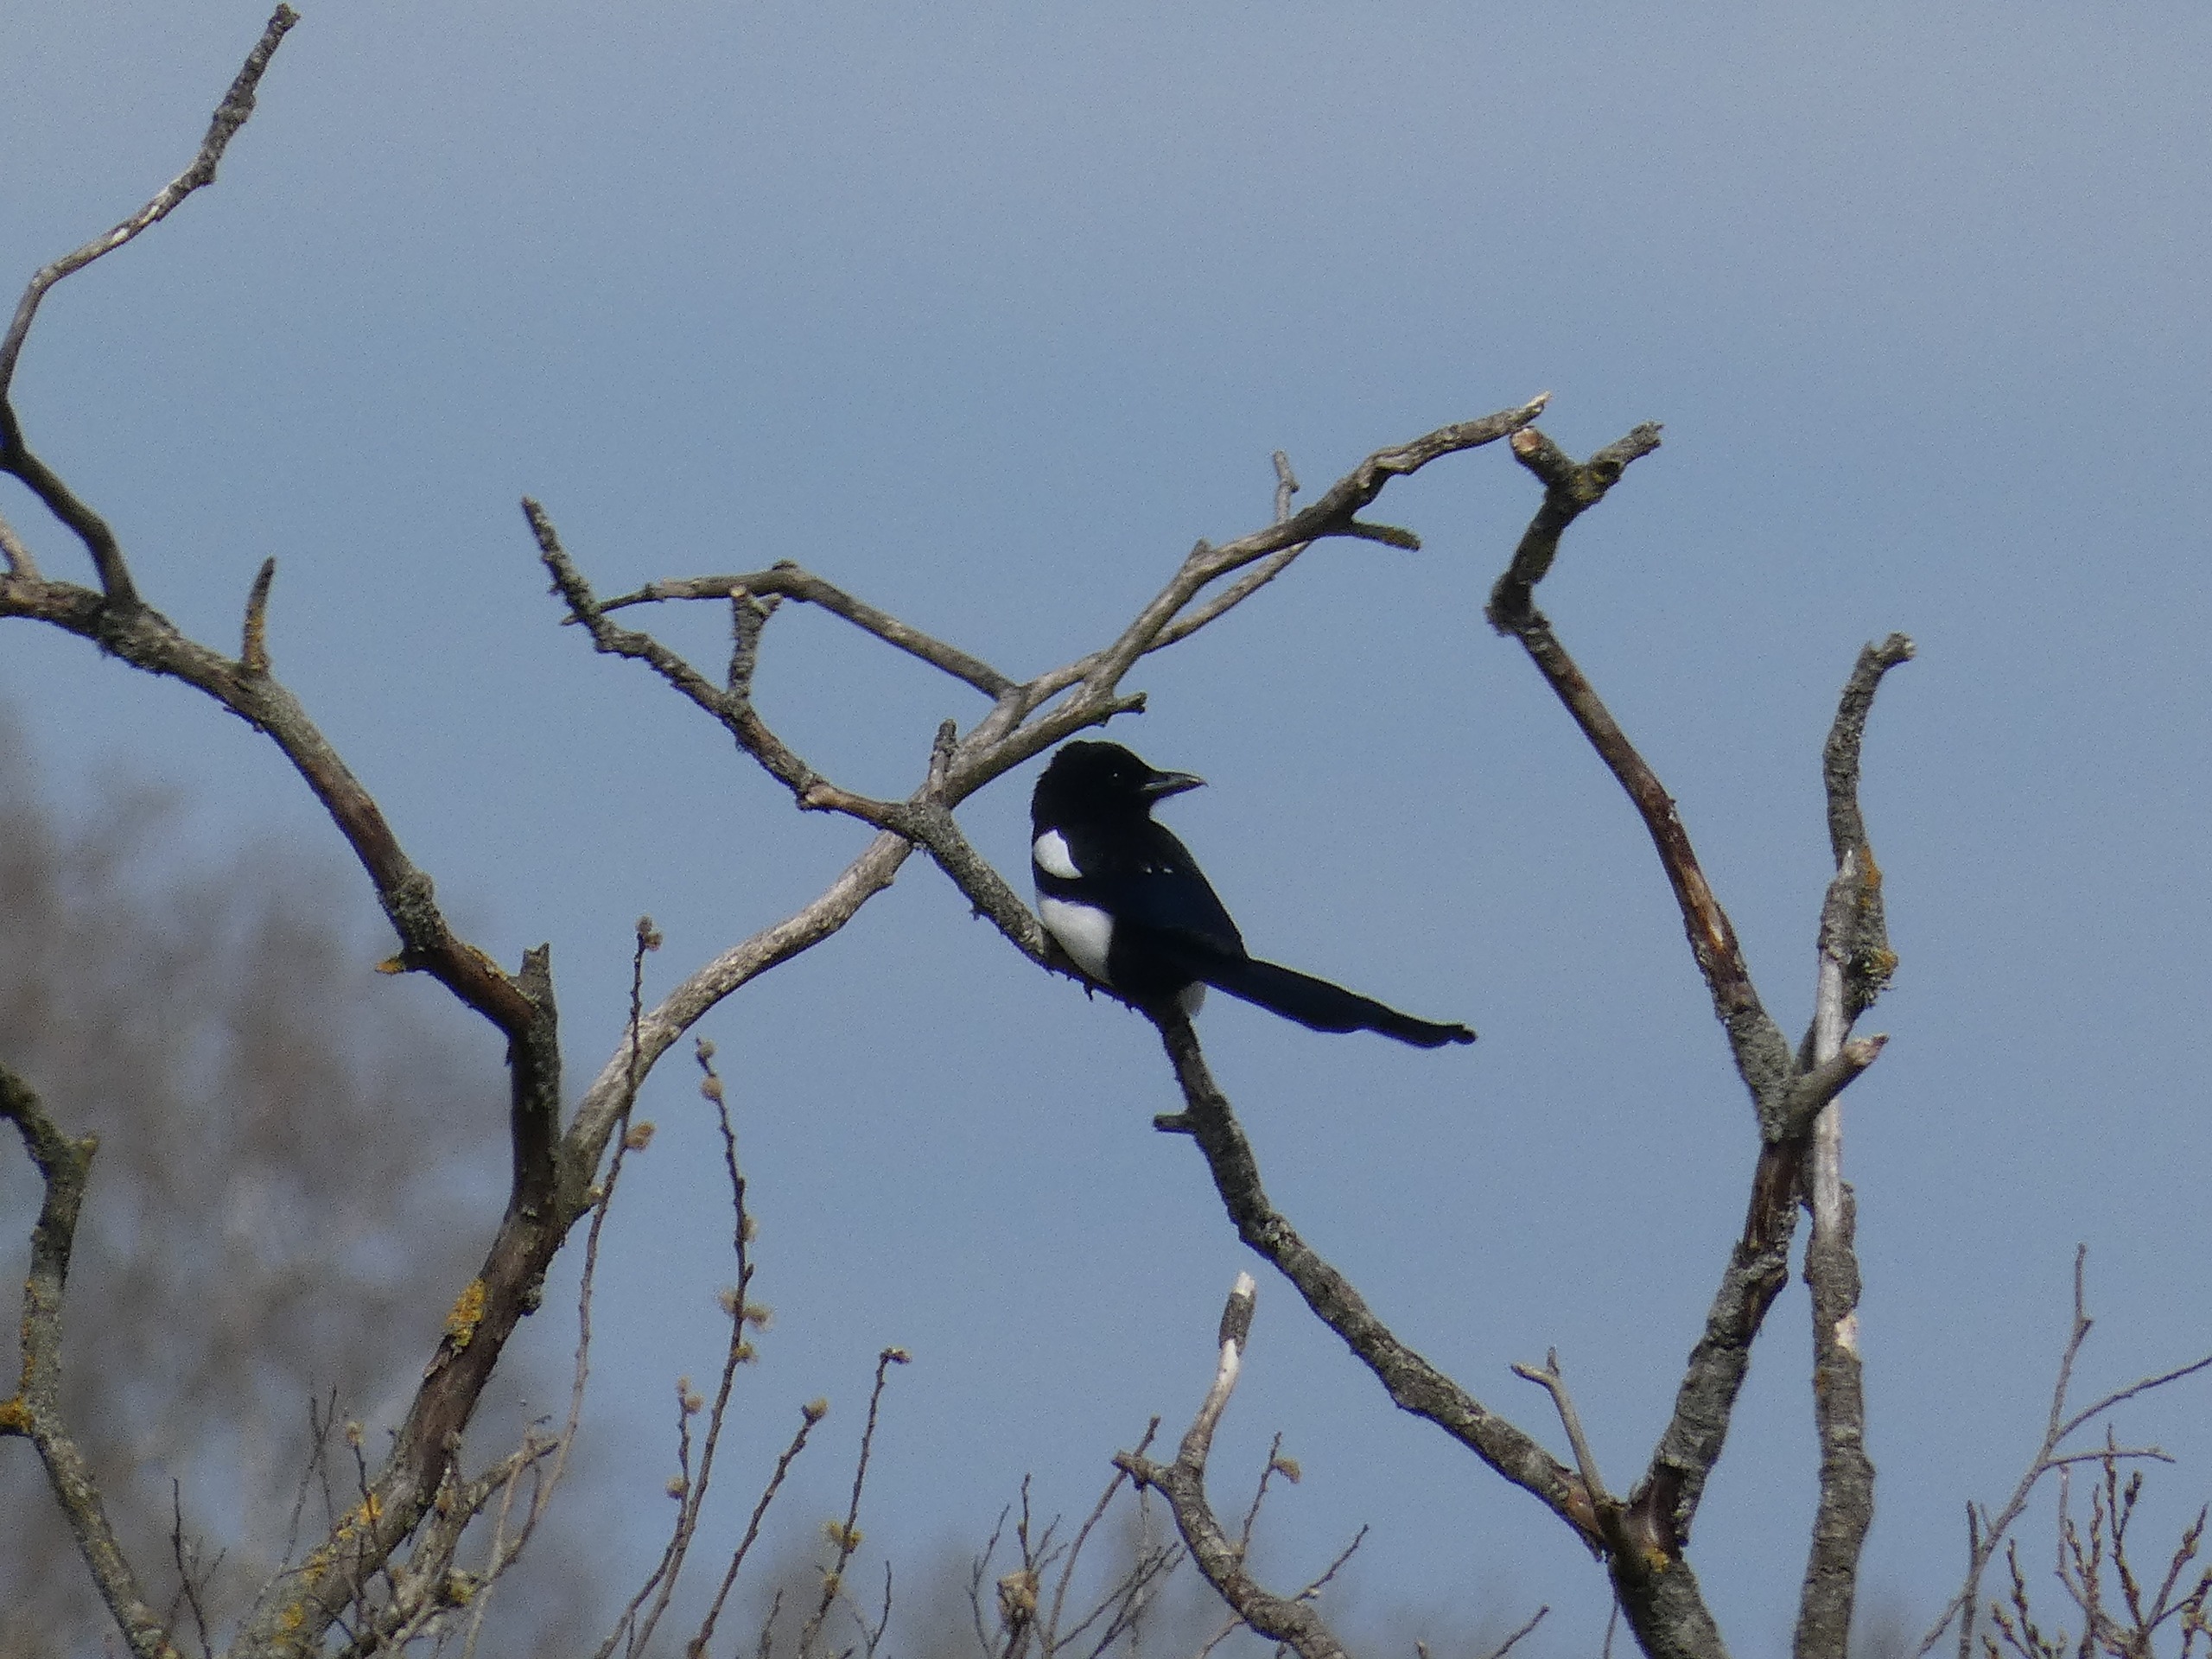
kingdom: Animalia
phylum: Chordata
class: Aves
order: Passeriformes
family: Corvidae
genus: Pica
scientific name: Pica pica
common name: Husskade
